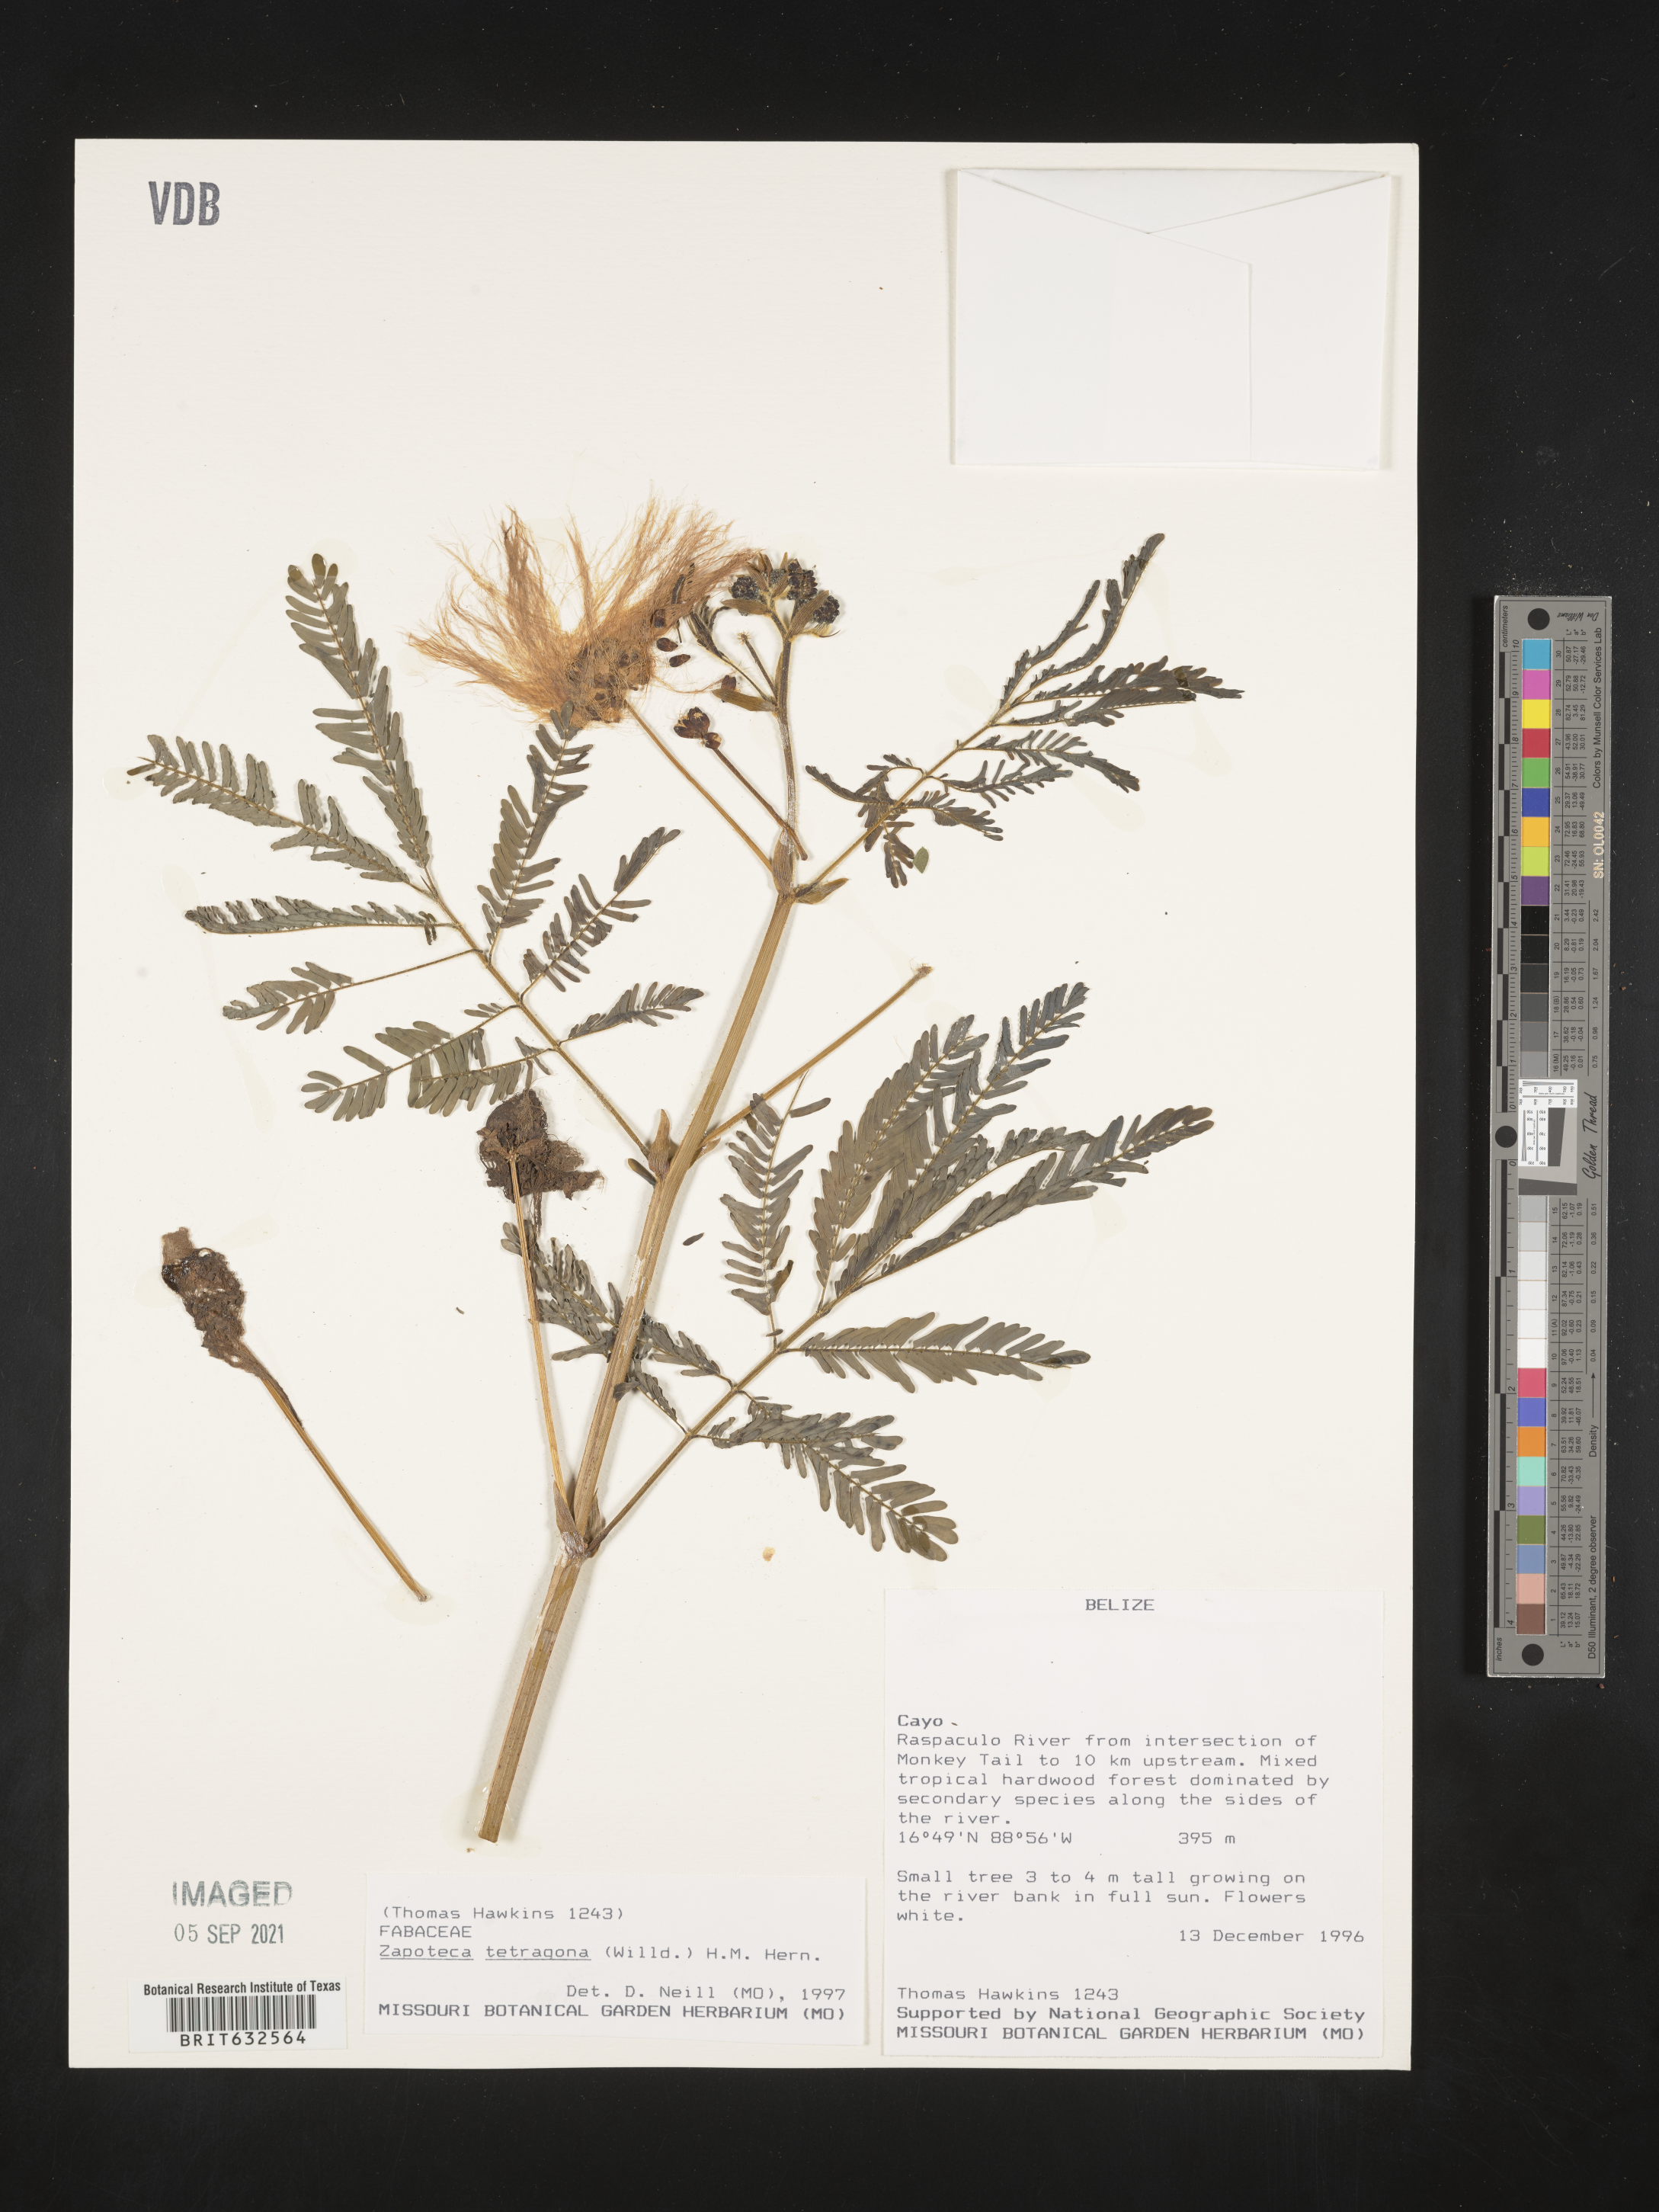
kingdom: Plantae
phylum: Tracheophyta
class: Magnoliopsida
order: Fabales
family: Fabaceae
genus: Zapoteca
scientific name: Zapoteca
